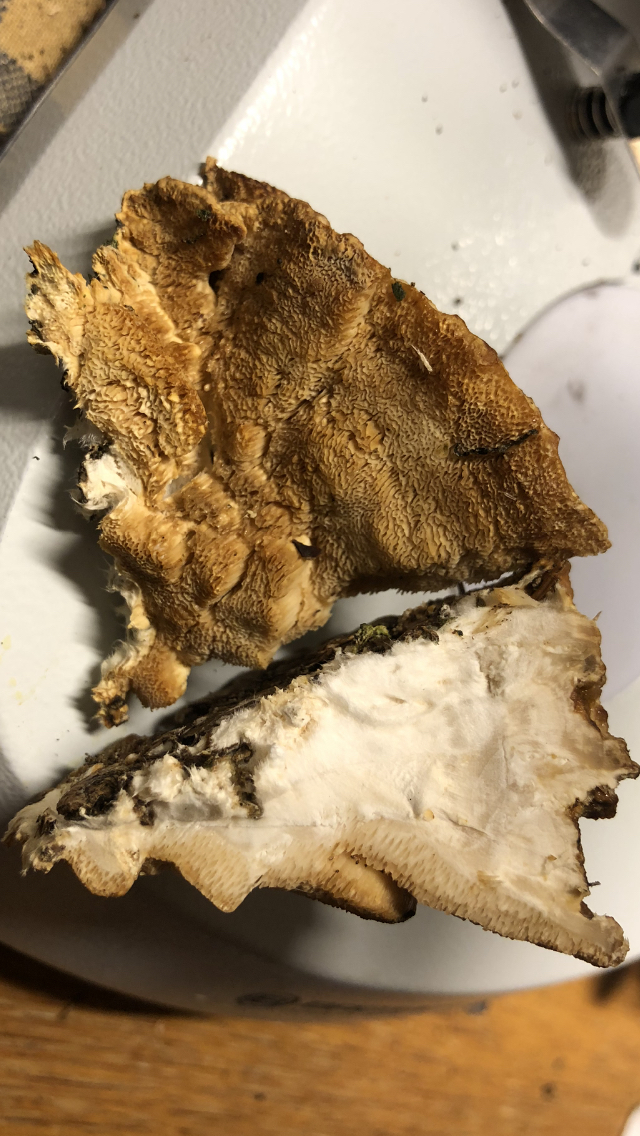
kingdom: Fungi
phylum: Basidiomycota
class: Agaricomycetes
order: Hymenochaetales
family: Hymenochaetaceae
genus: Xanthoporia
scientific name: Xanthoporia radiata
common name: elle-spejlporesvamp
